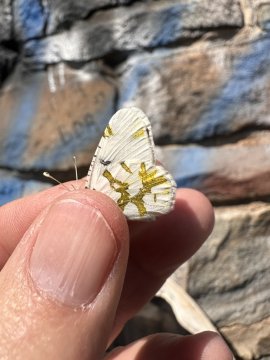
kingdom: Animalia
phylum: Arthropoda
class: Insecta
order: Lepidoptera
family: Pieridae
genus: Euchloe
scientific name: Euchloe olympia
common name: Olympia Marble
